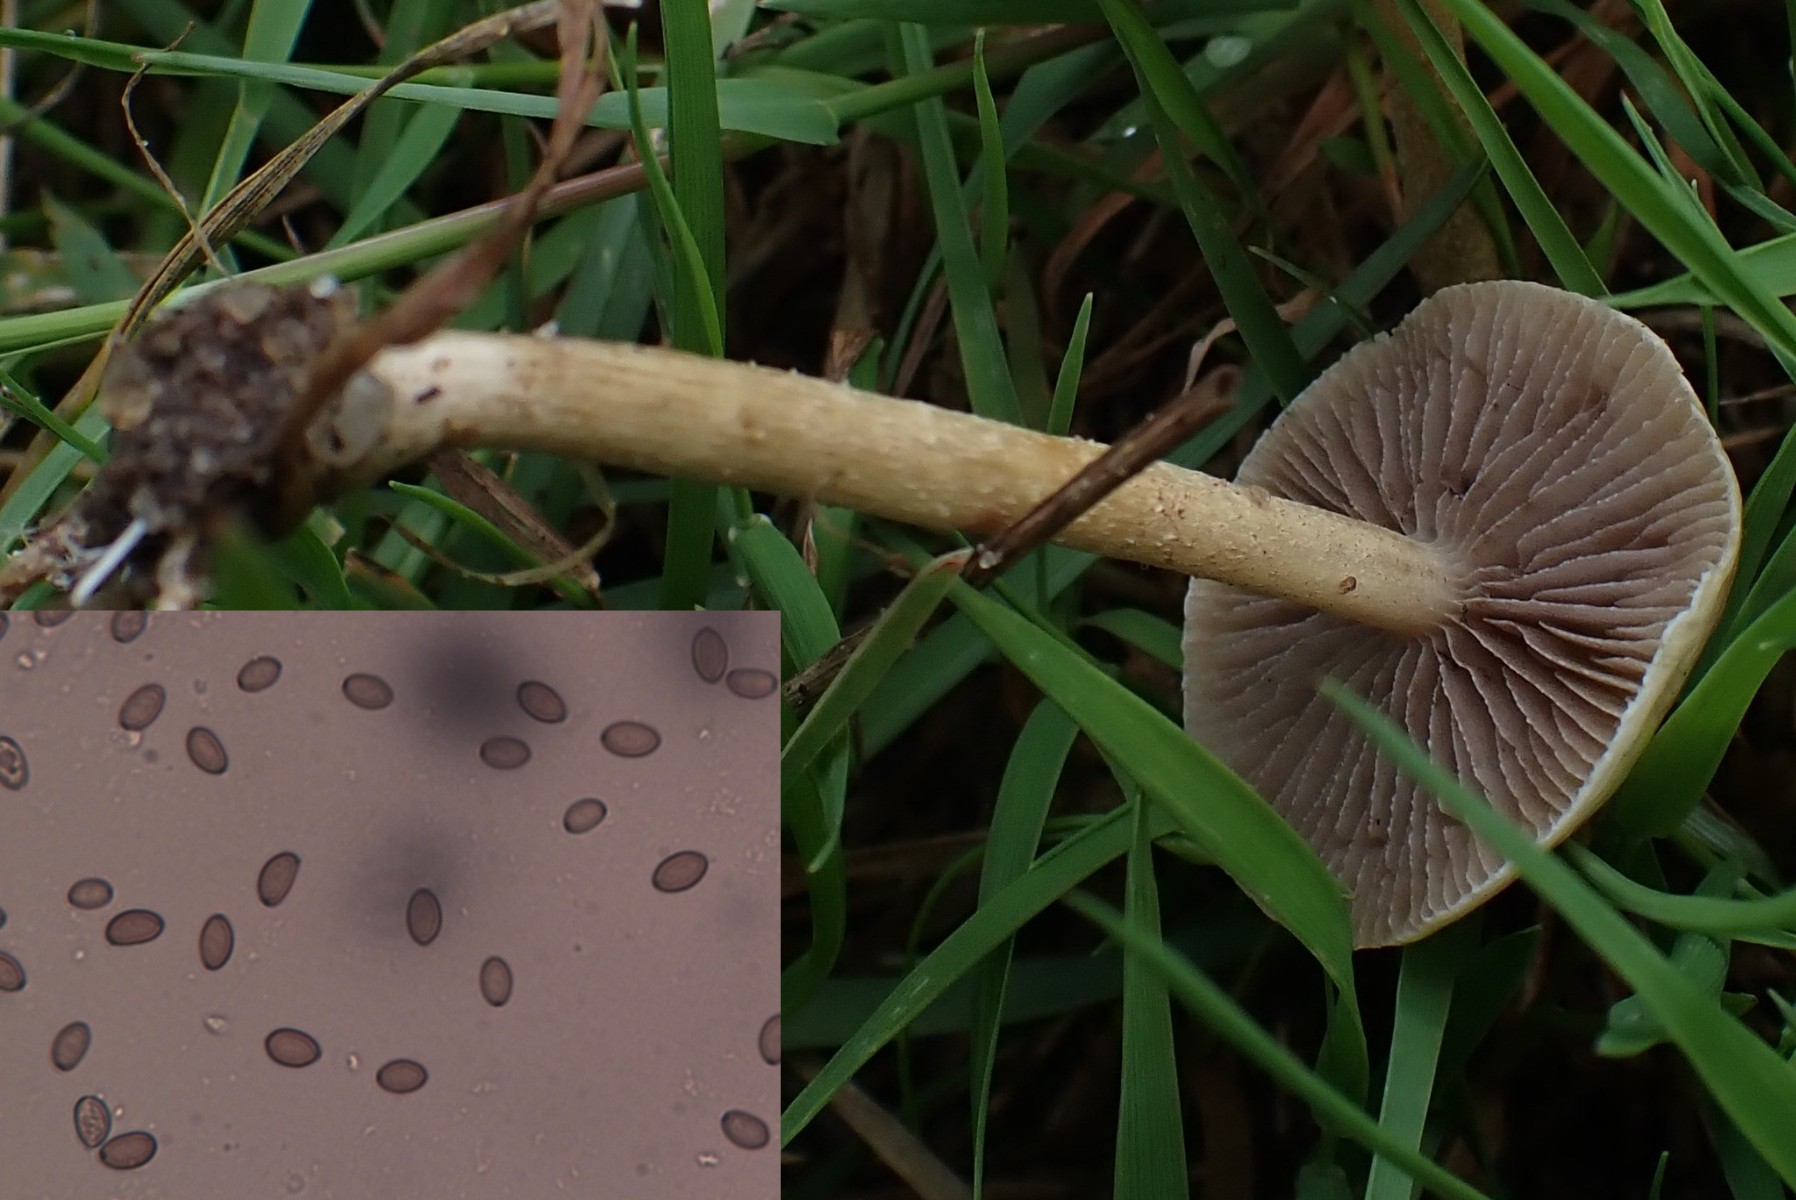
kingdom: Fungi
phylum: Basidiomycota
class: Agaricomycetes
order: Agaricales
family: Strophariaceae
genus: Agrocybe
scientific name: Agrocybe pediades
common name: almindelig agerhat
